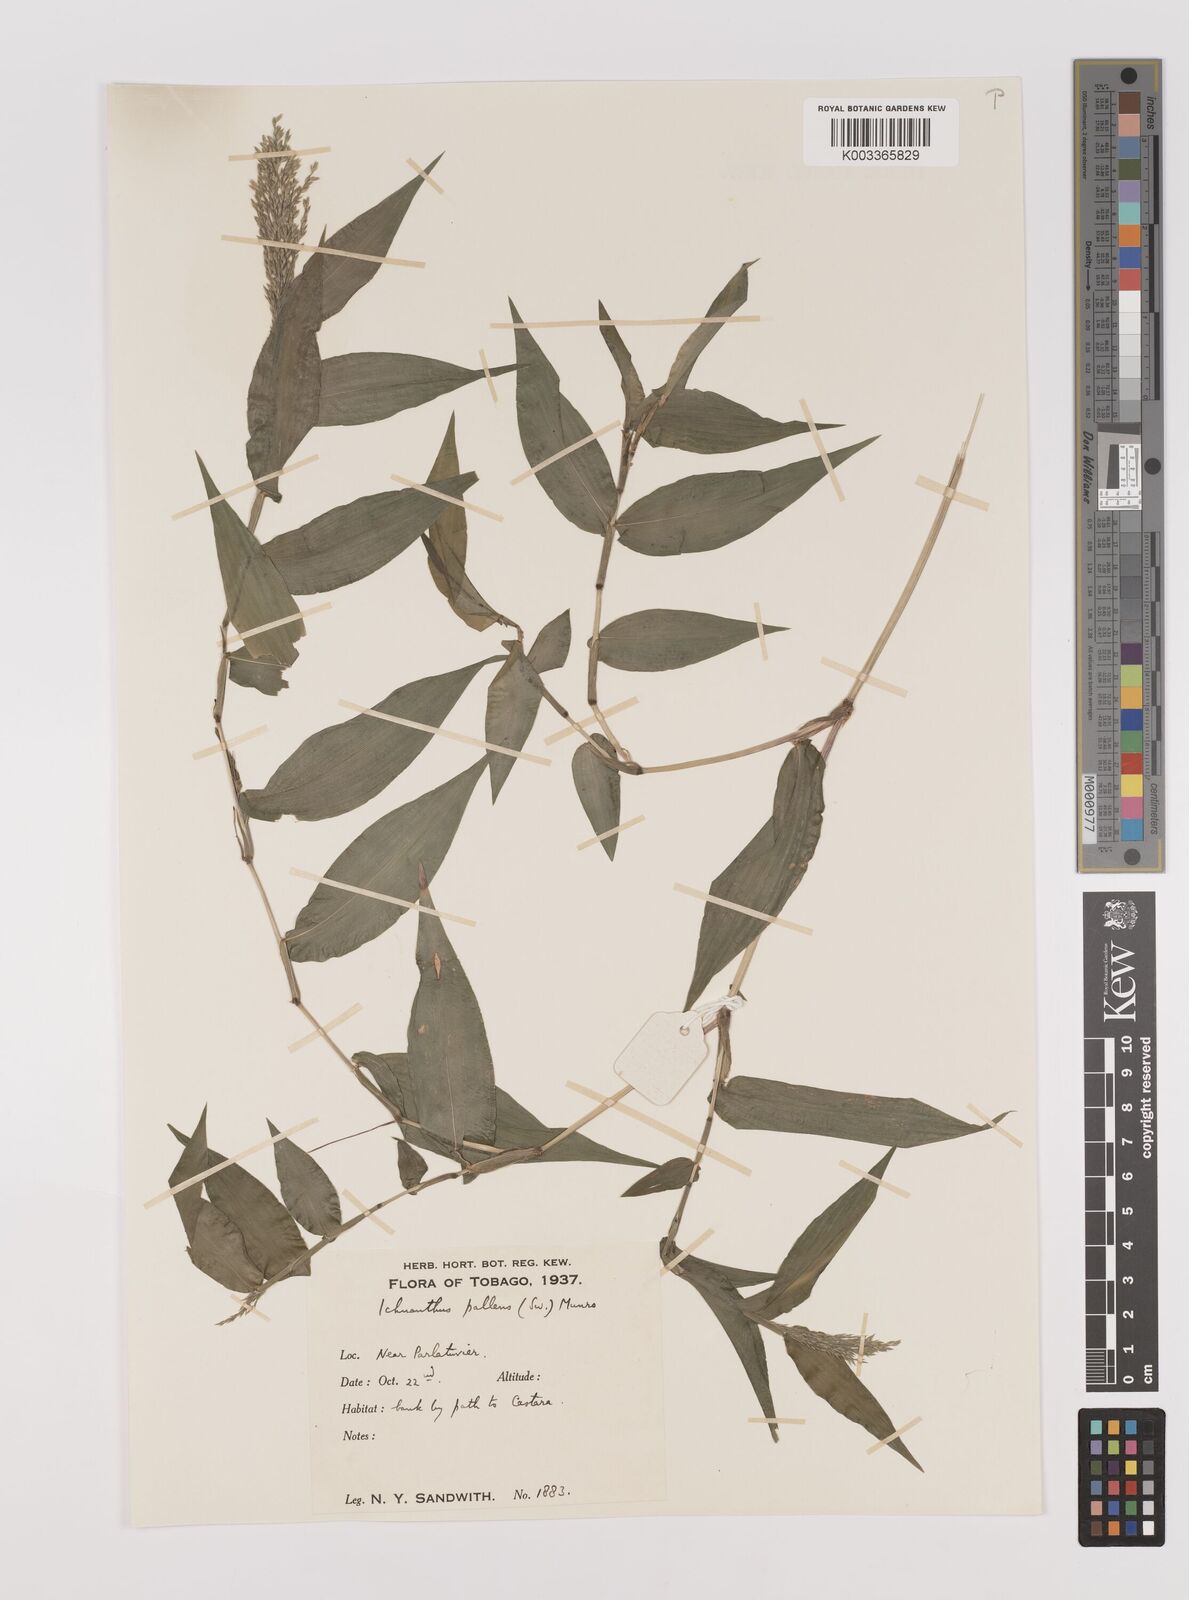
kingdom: Plantae
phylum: Tracheophyta
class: Liliopsida
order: Poales
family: Poaceae
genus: Ichnanthus
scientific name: Ichnanthus pallens
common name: Water grass
